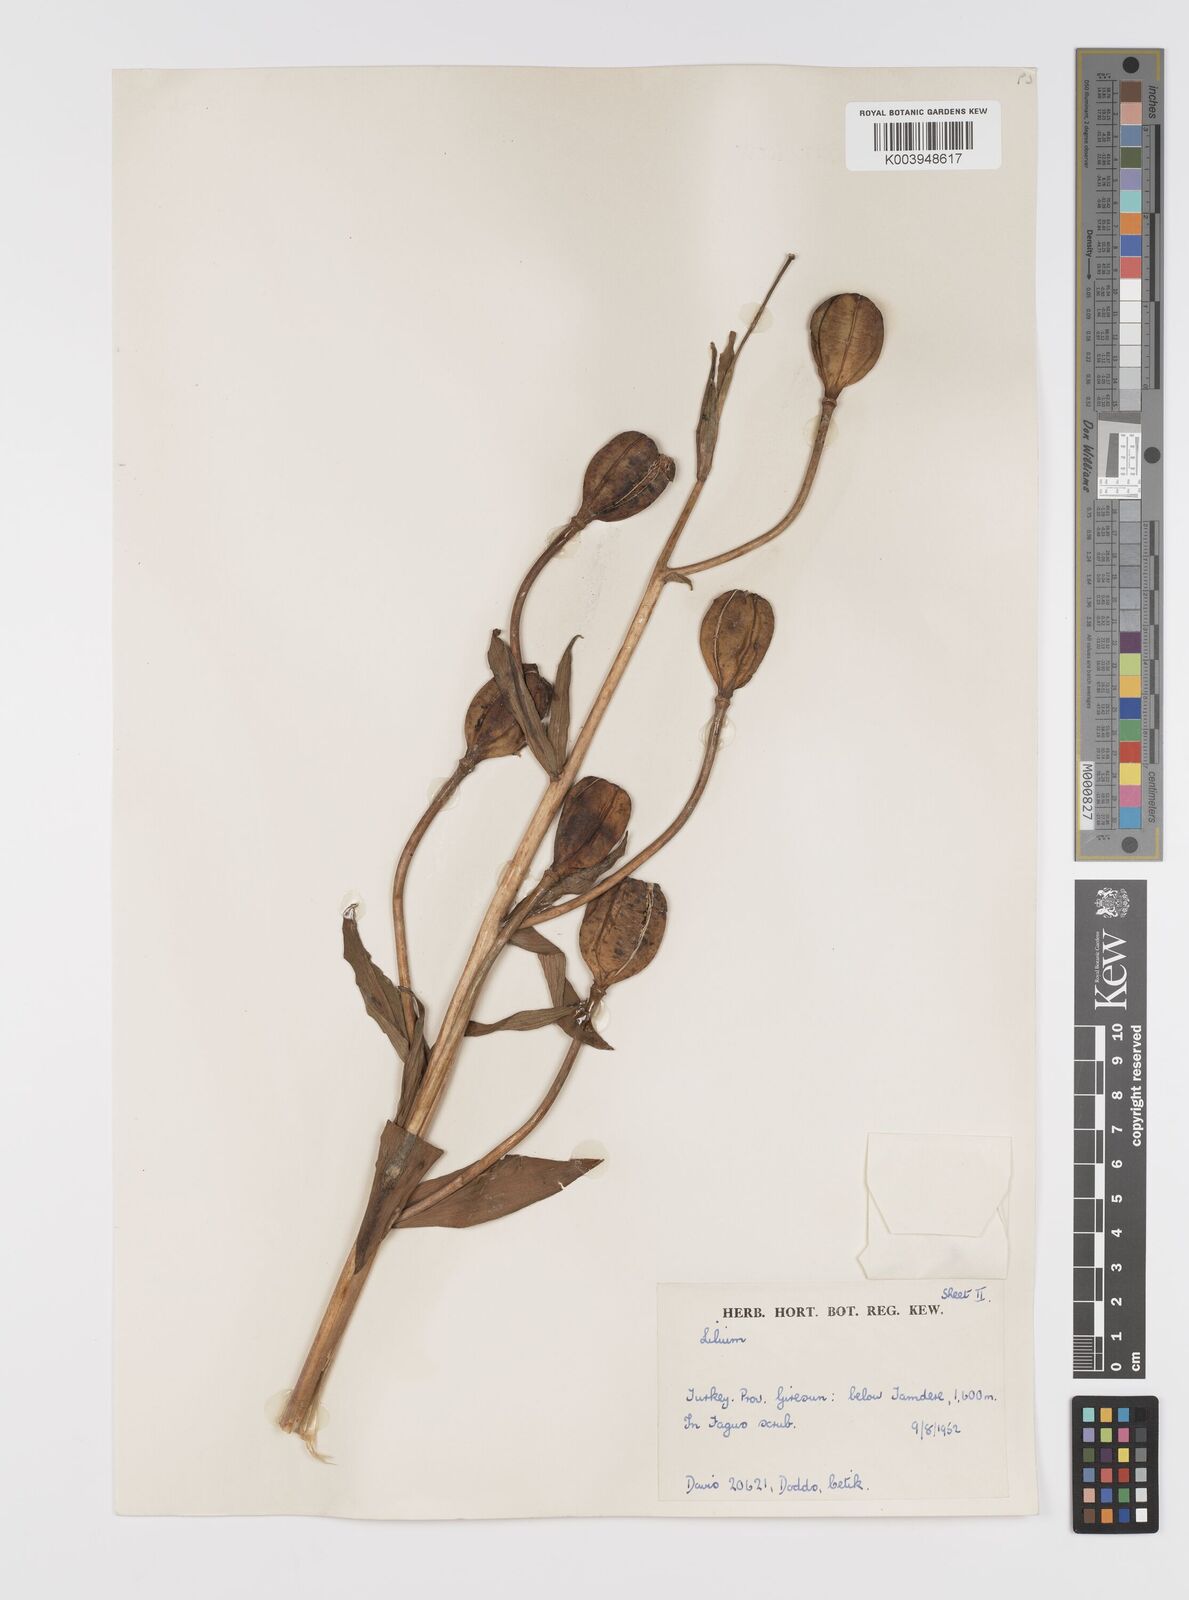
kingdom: Plantae
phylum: Tracheophyta
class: Liliopsida
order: Liliales
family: Liliaceae
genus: Lilium
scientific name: Lilium ciliatum
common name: Ciliate lily
